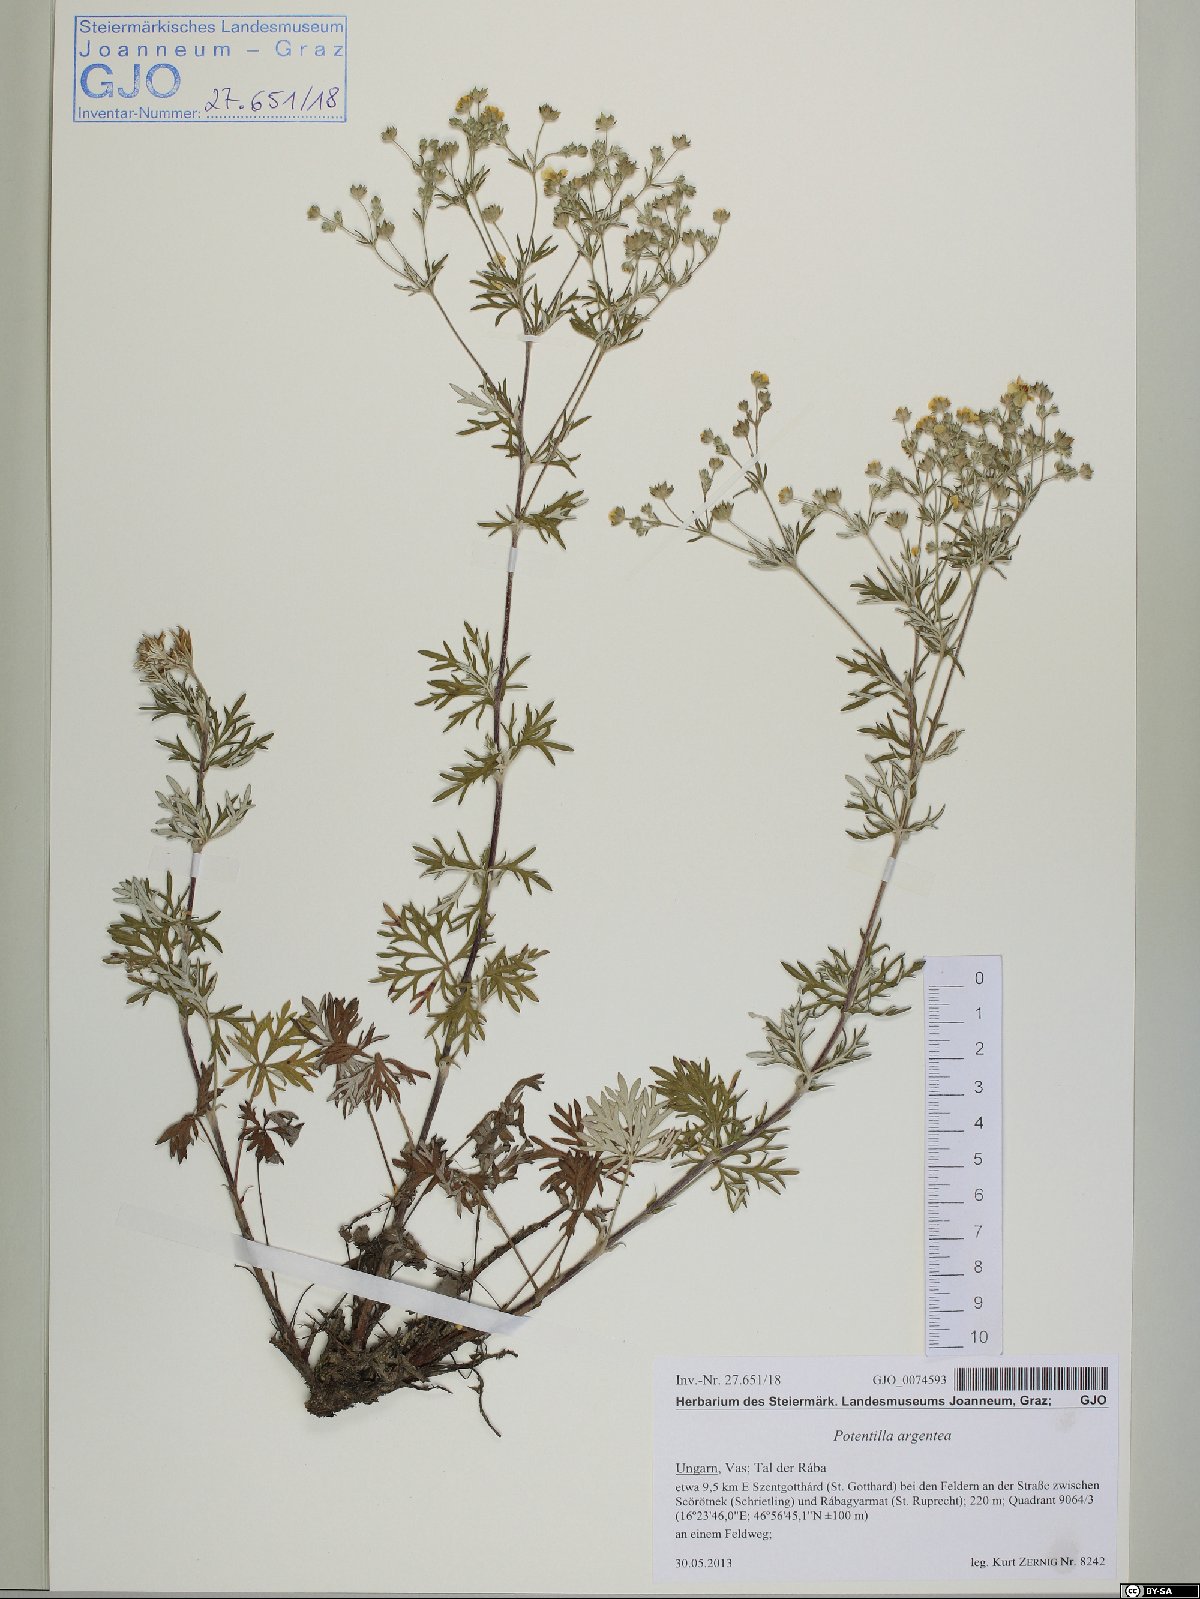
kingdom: Plantae
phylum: Tracheophyta
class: Magnoliopsida
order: Rosales
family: Rosaceae
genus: Potentilla
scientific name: Potentilla argentea
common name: Hoary cinquefoil
